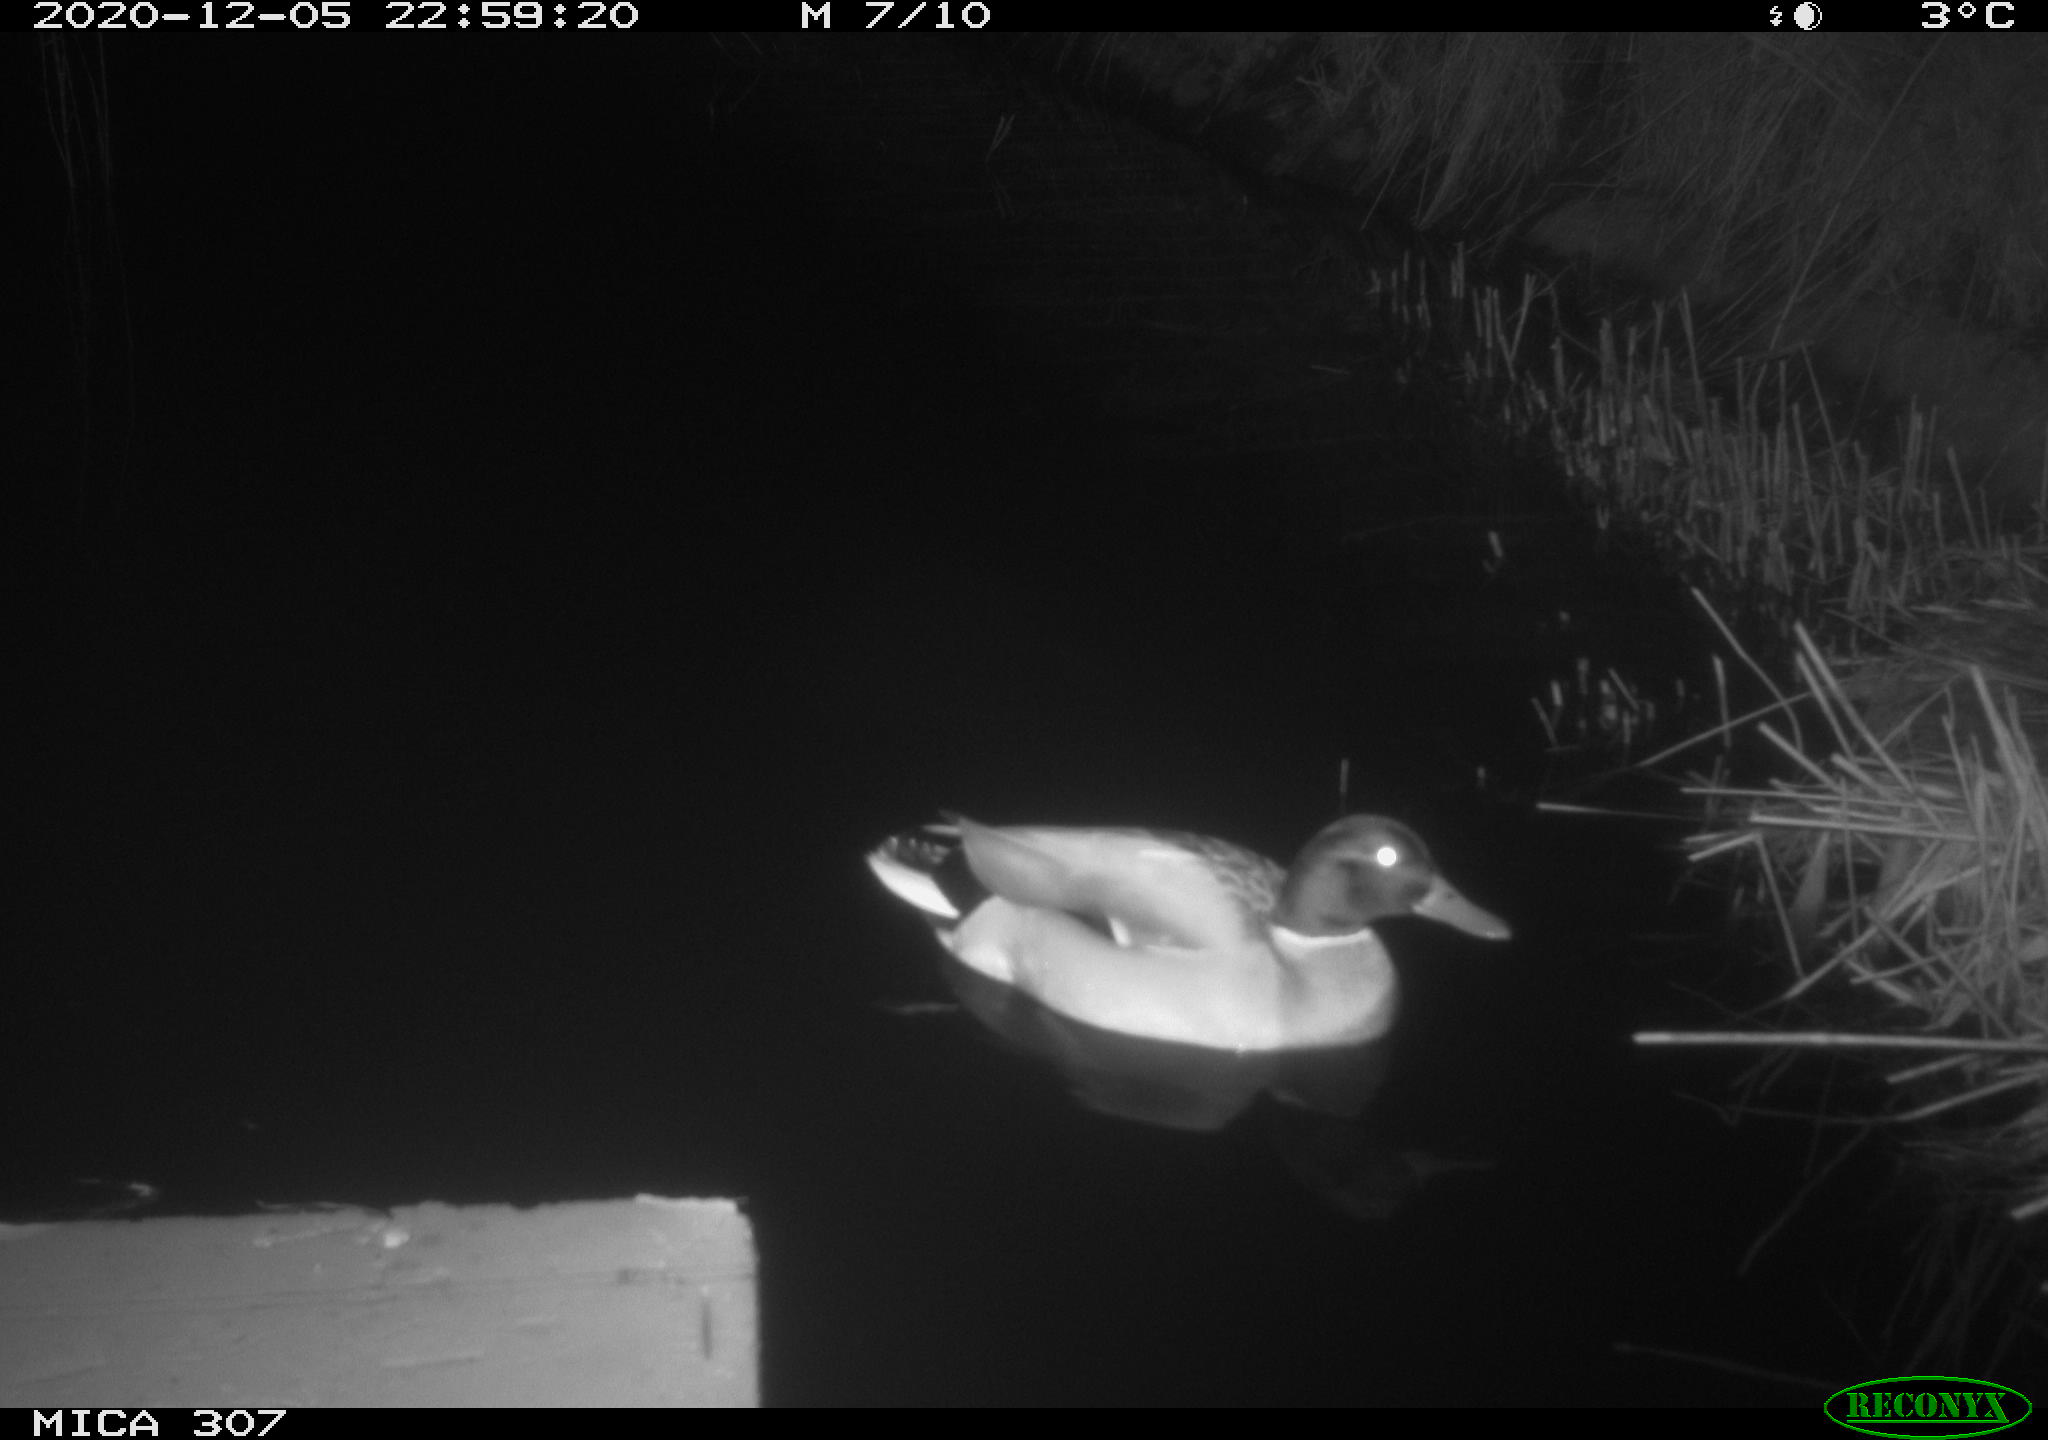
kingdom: Animalia
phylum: Chordata
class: Aves
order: Anseriformes
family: Anatidae
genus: Anas
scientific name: Anas platyrhynchos
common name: Mallard
